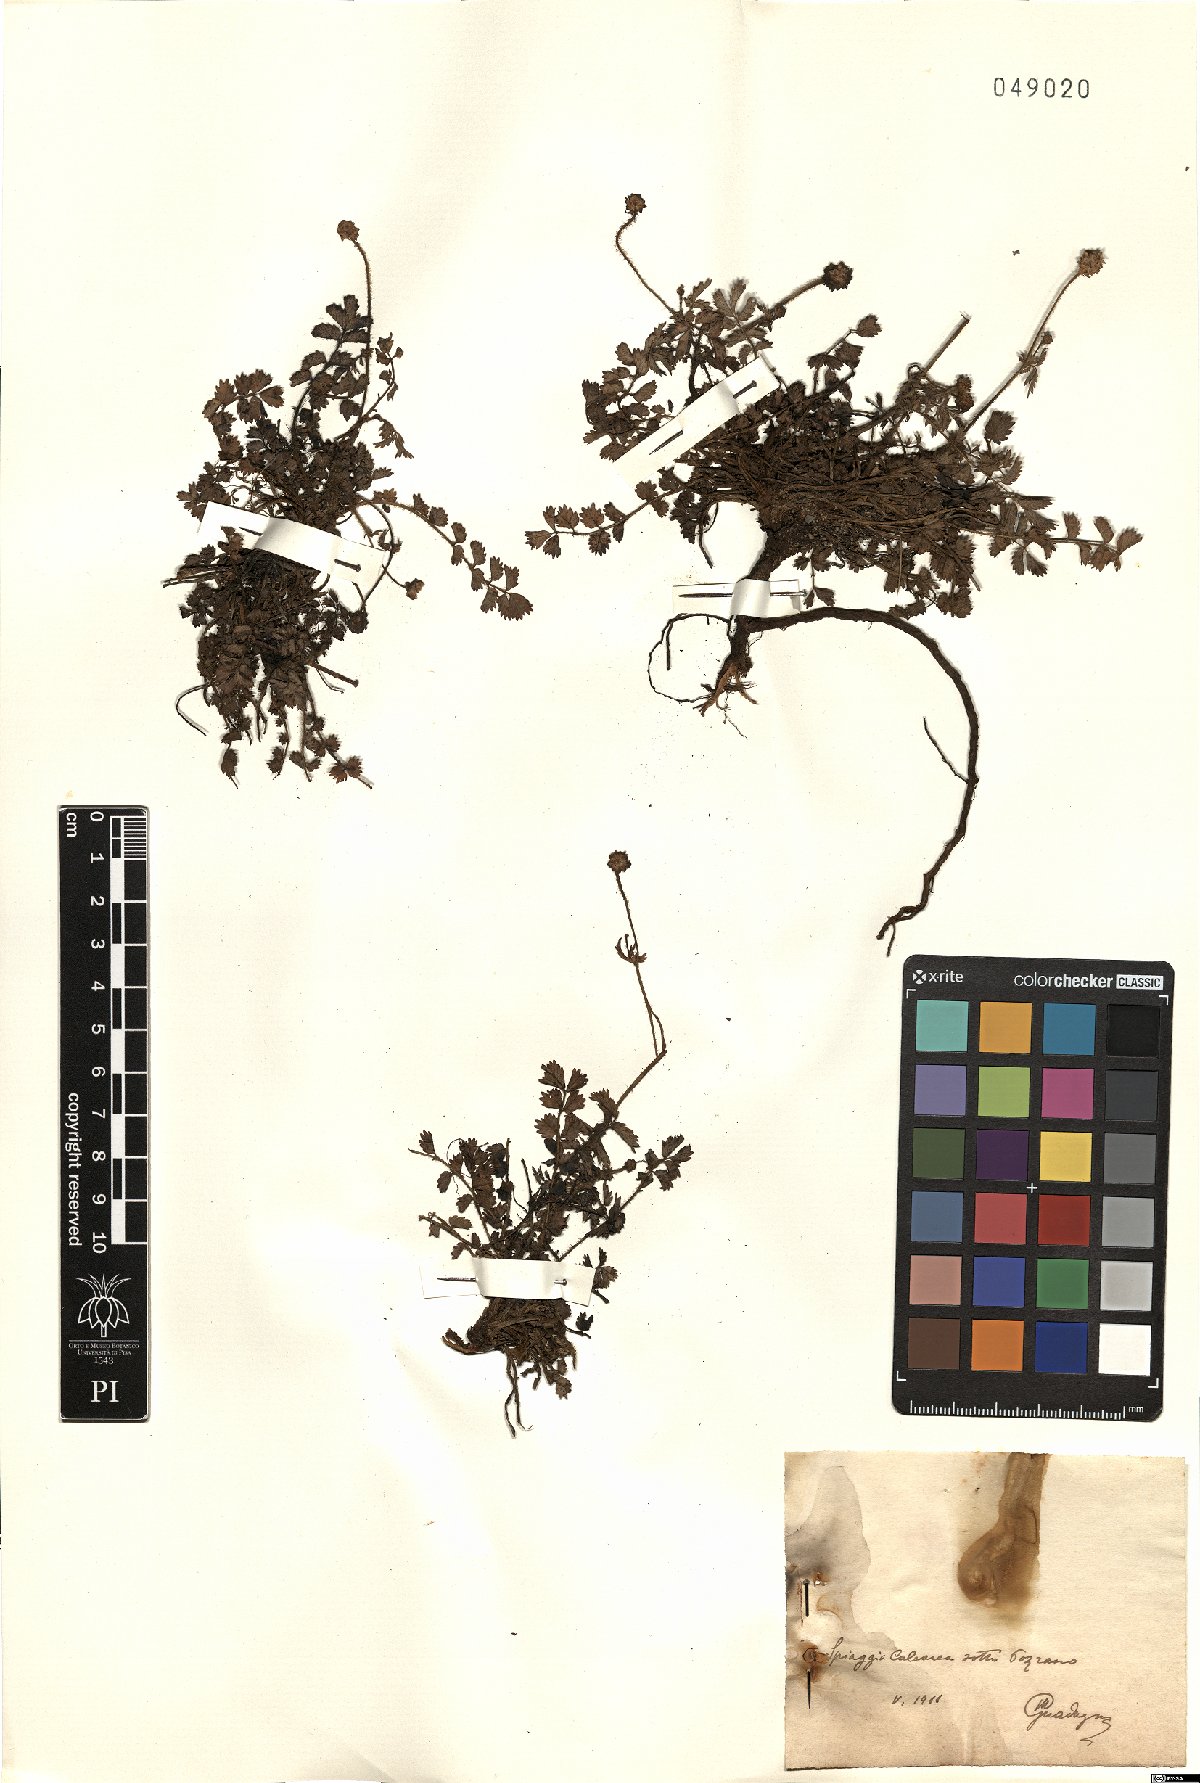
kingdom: Plantae
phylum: Tracheophyta
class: Magnoliopsida
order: Rosales
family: Rosaceae
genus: Poterium
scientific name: Poterium
